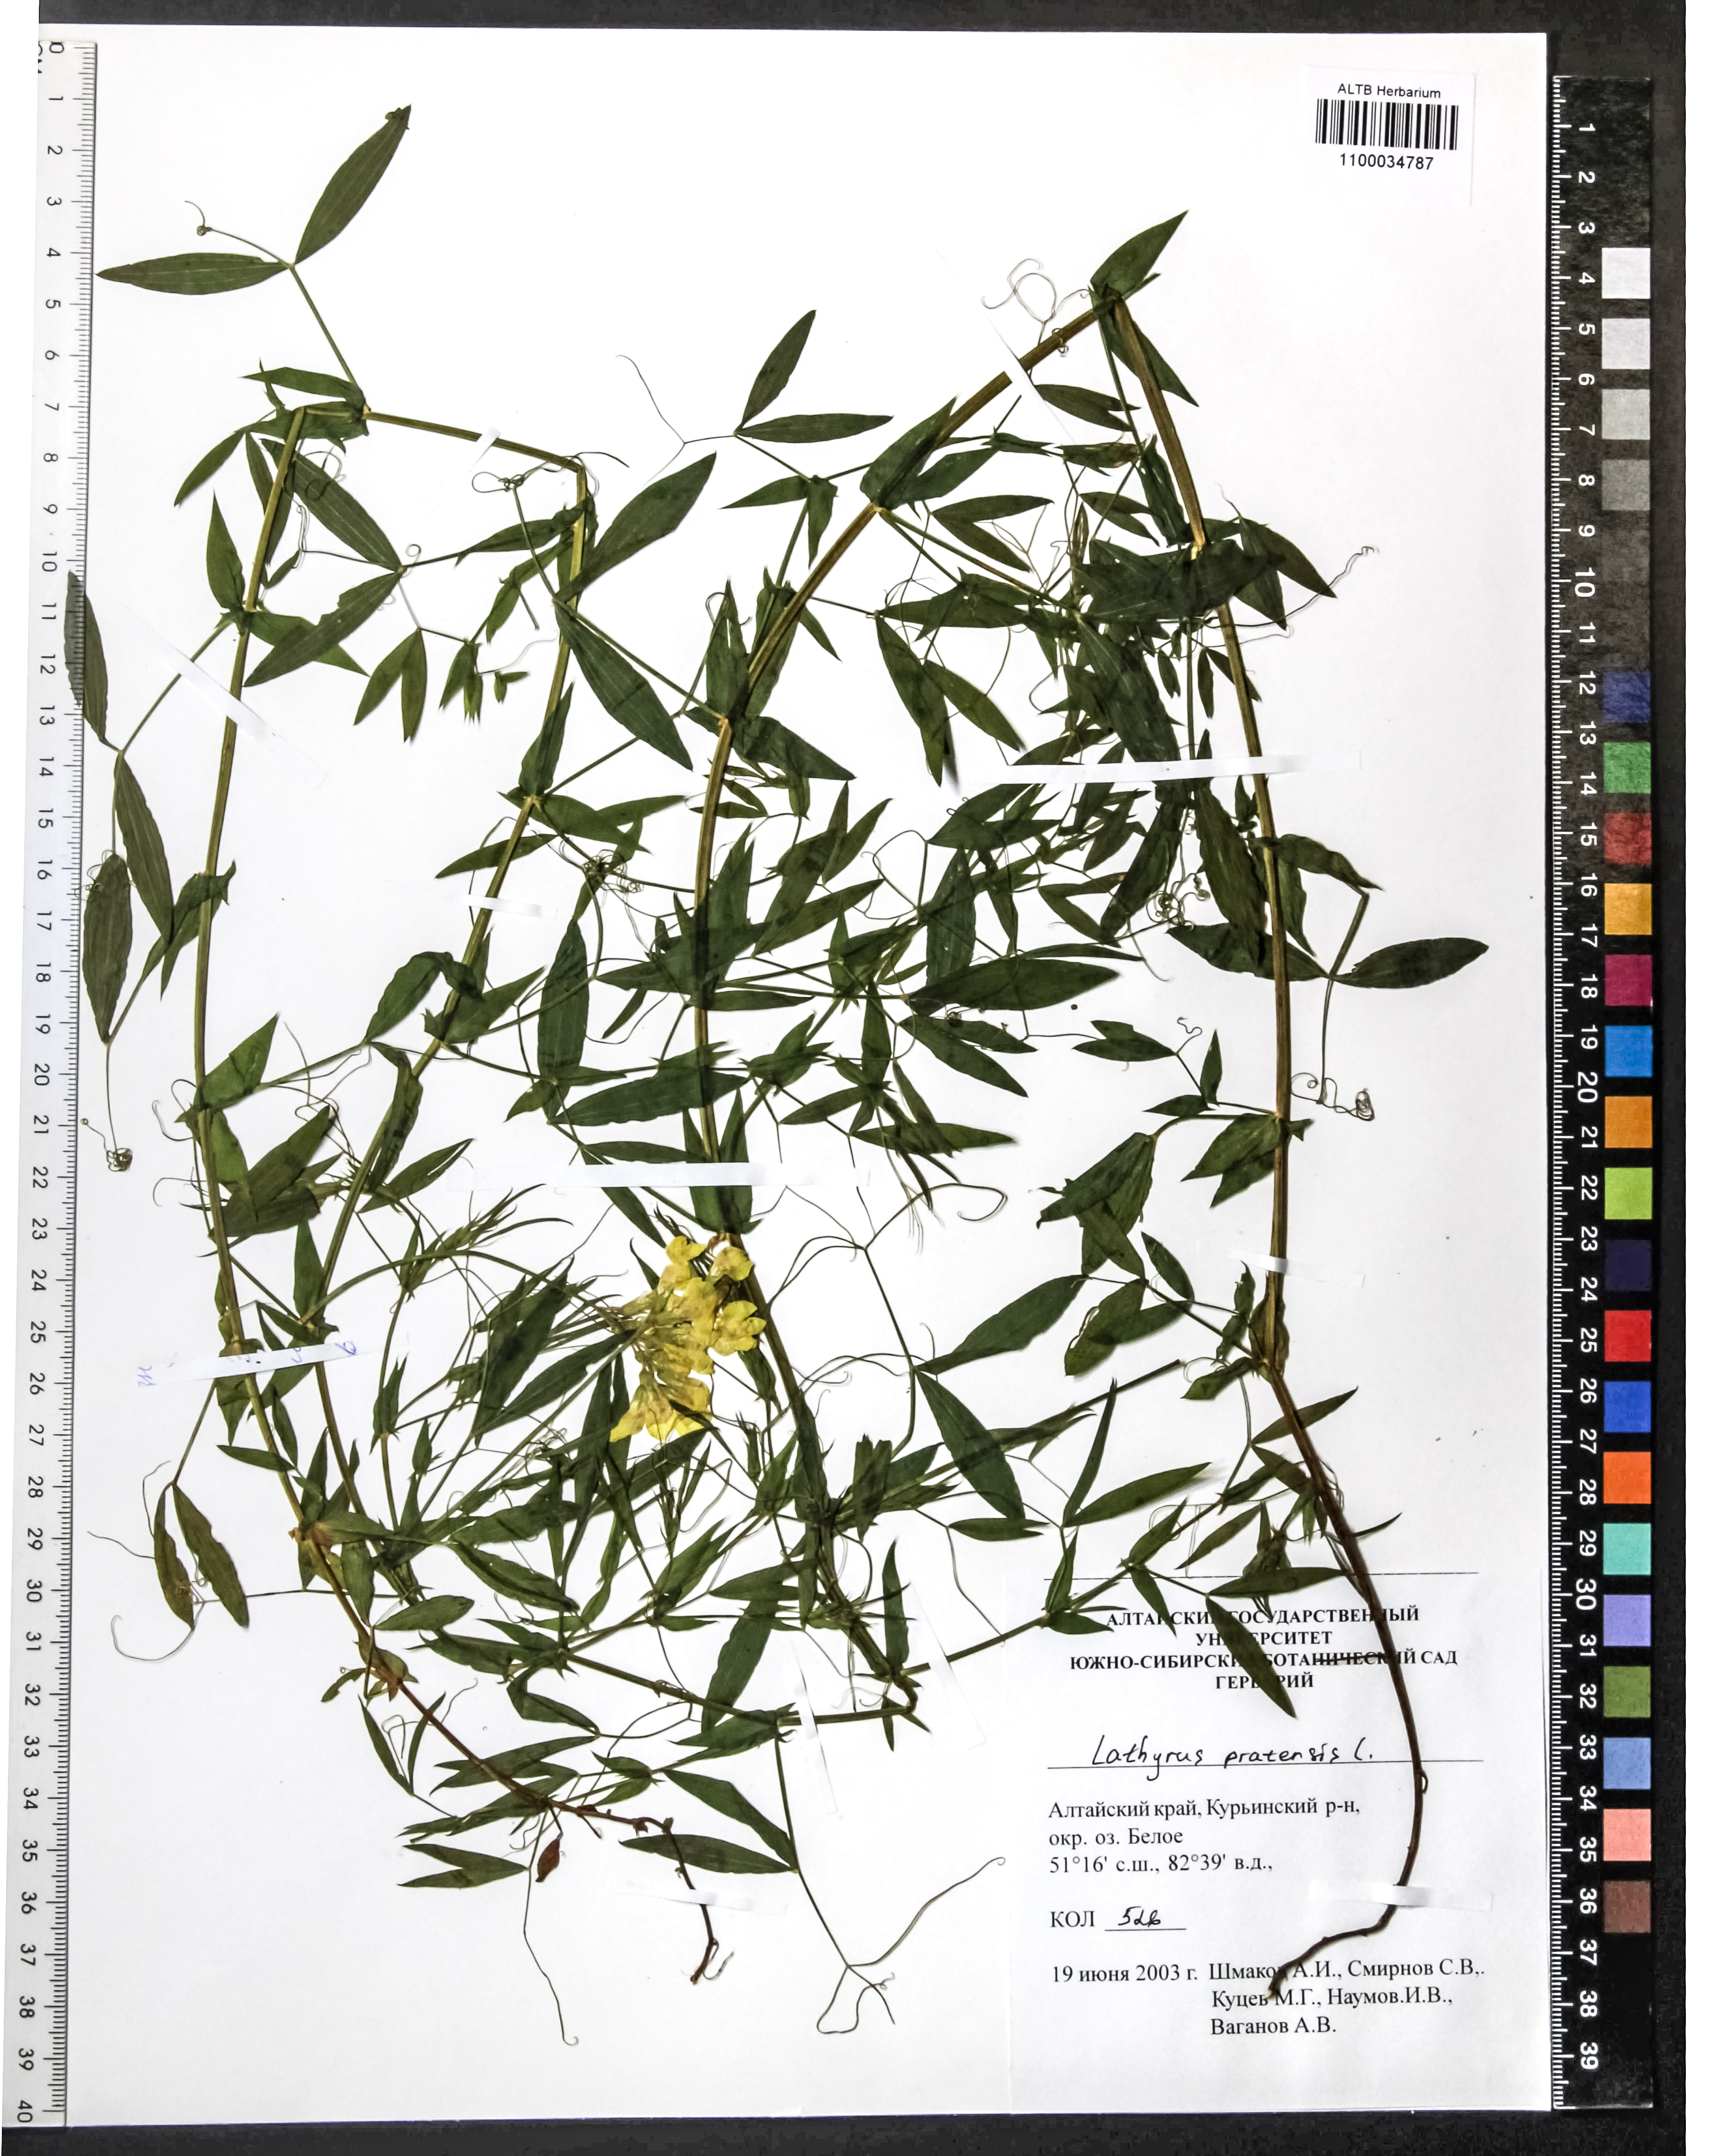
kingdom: Plantae
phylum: Tracheophyta
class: Magnoliopsida
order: Fabales
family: Fabaceae
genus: Lathyrus
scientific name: Lathyrus pratensis
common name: Meadow vetchling
